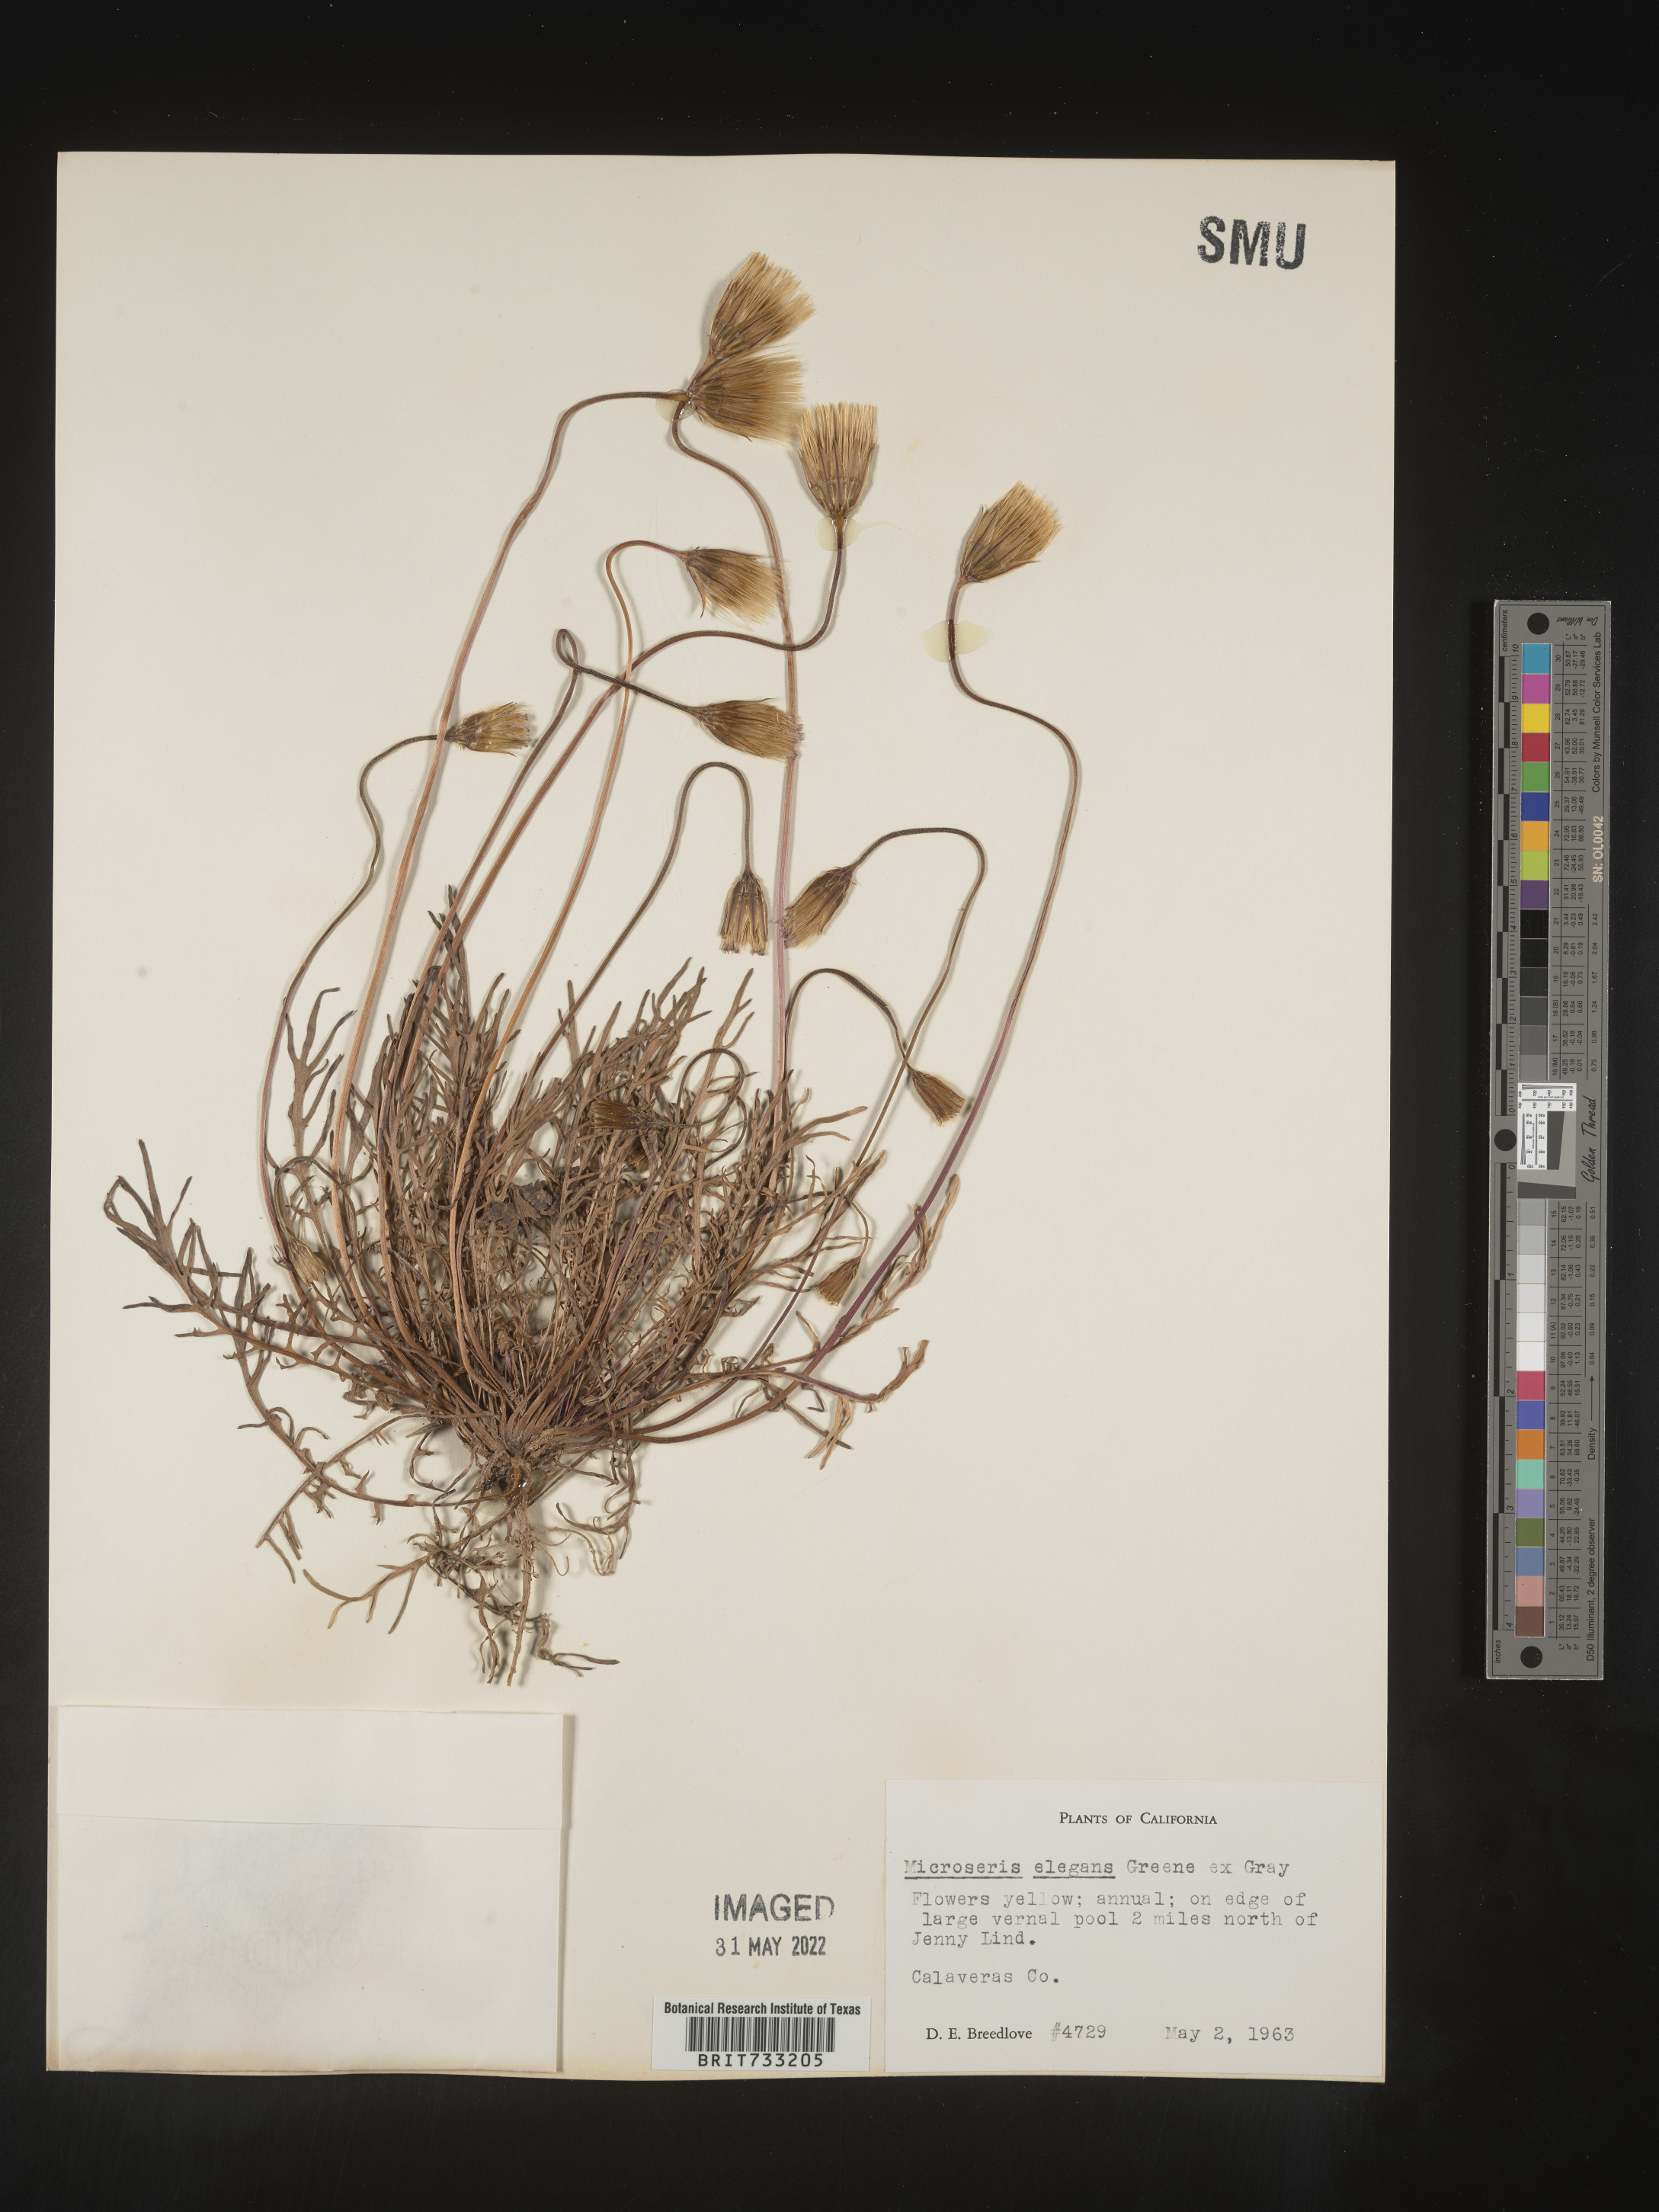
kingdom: Plantae
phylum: Tracheophyta
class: Magnoliopsida
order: Asterales
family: Asteraceae
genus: Microseris
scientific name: Microseris
